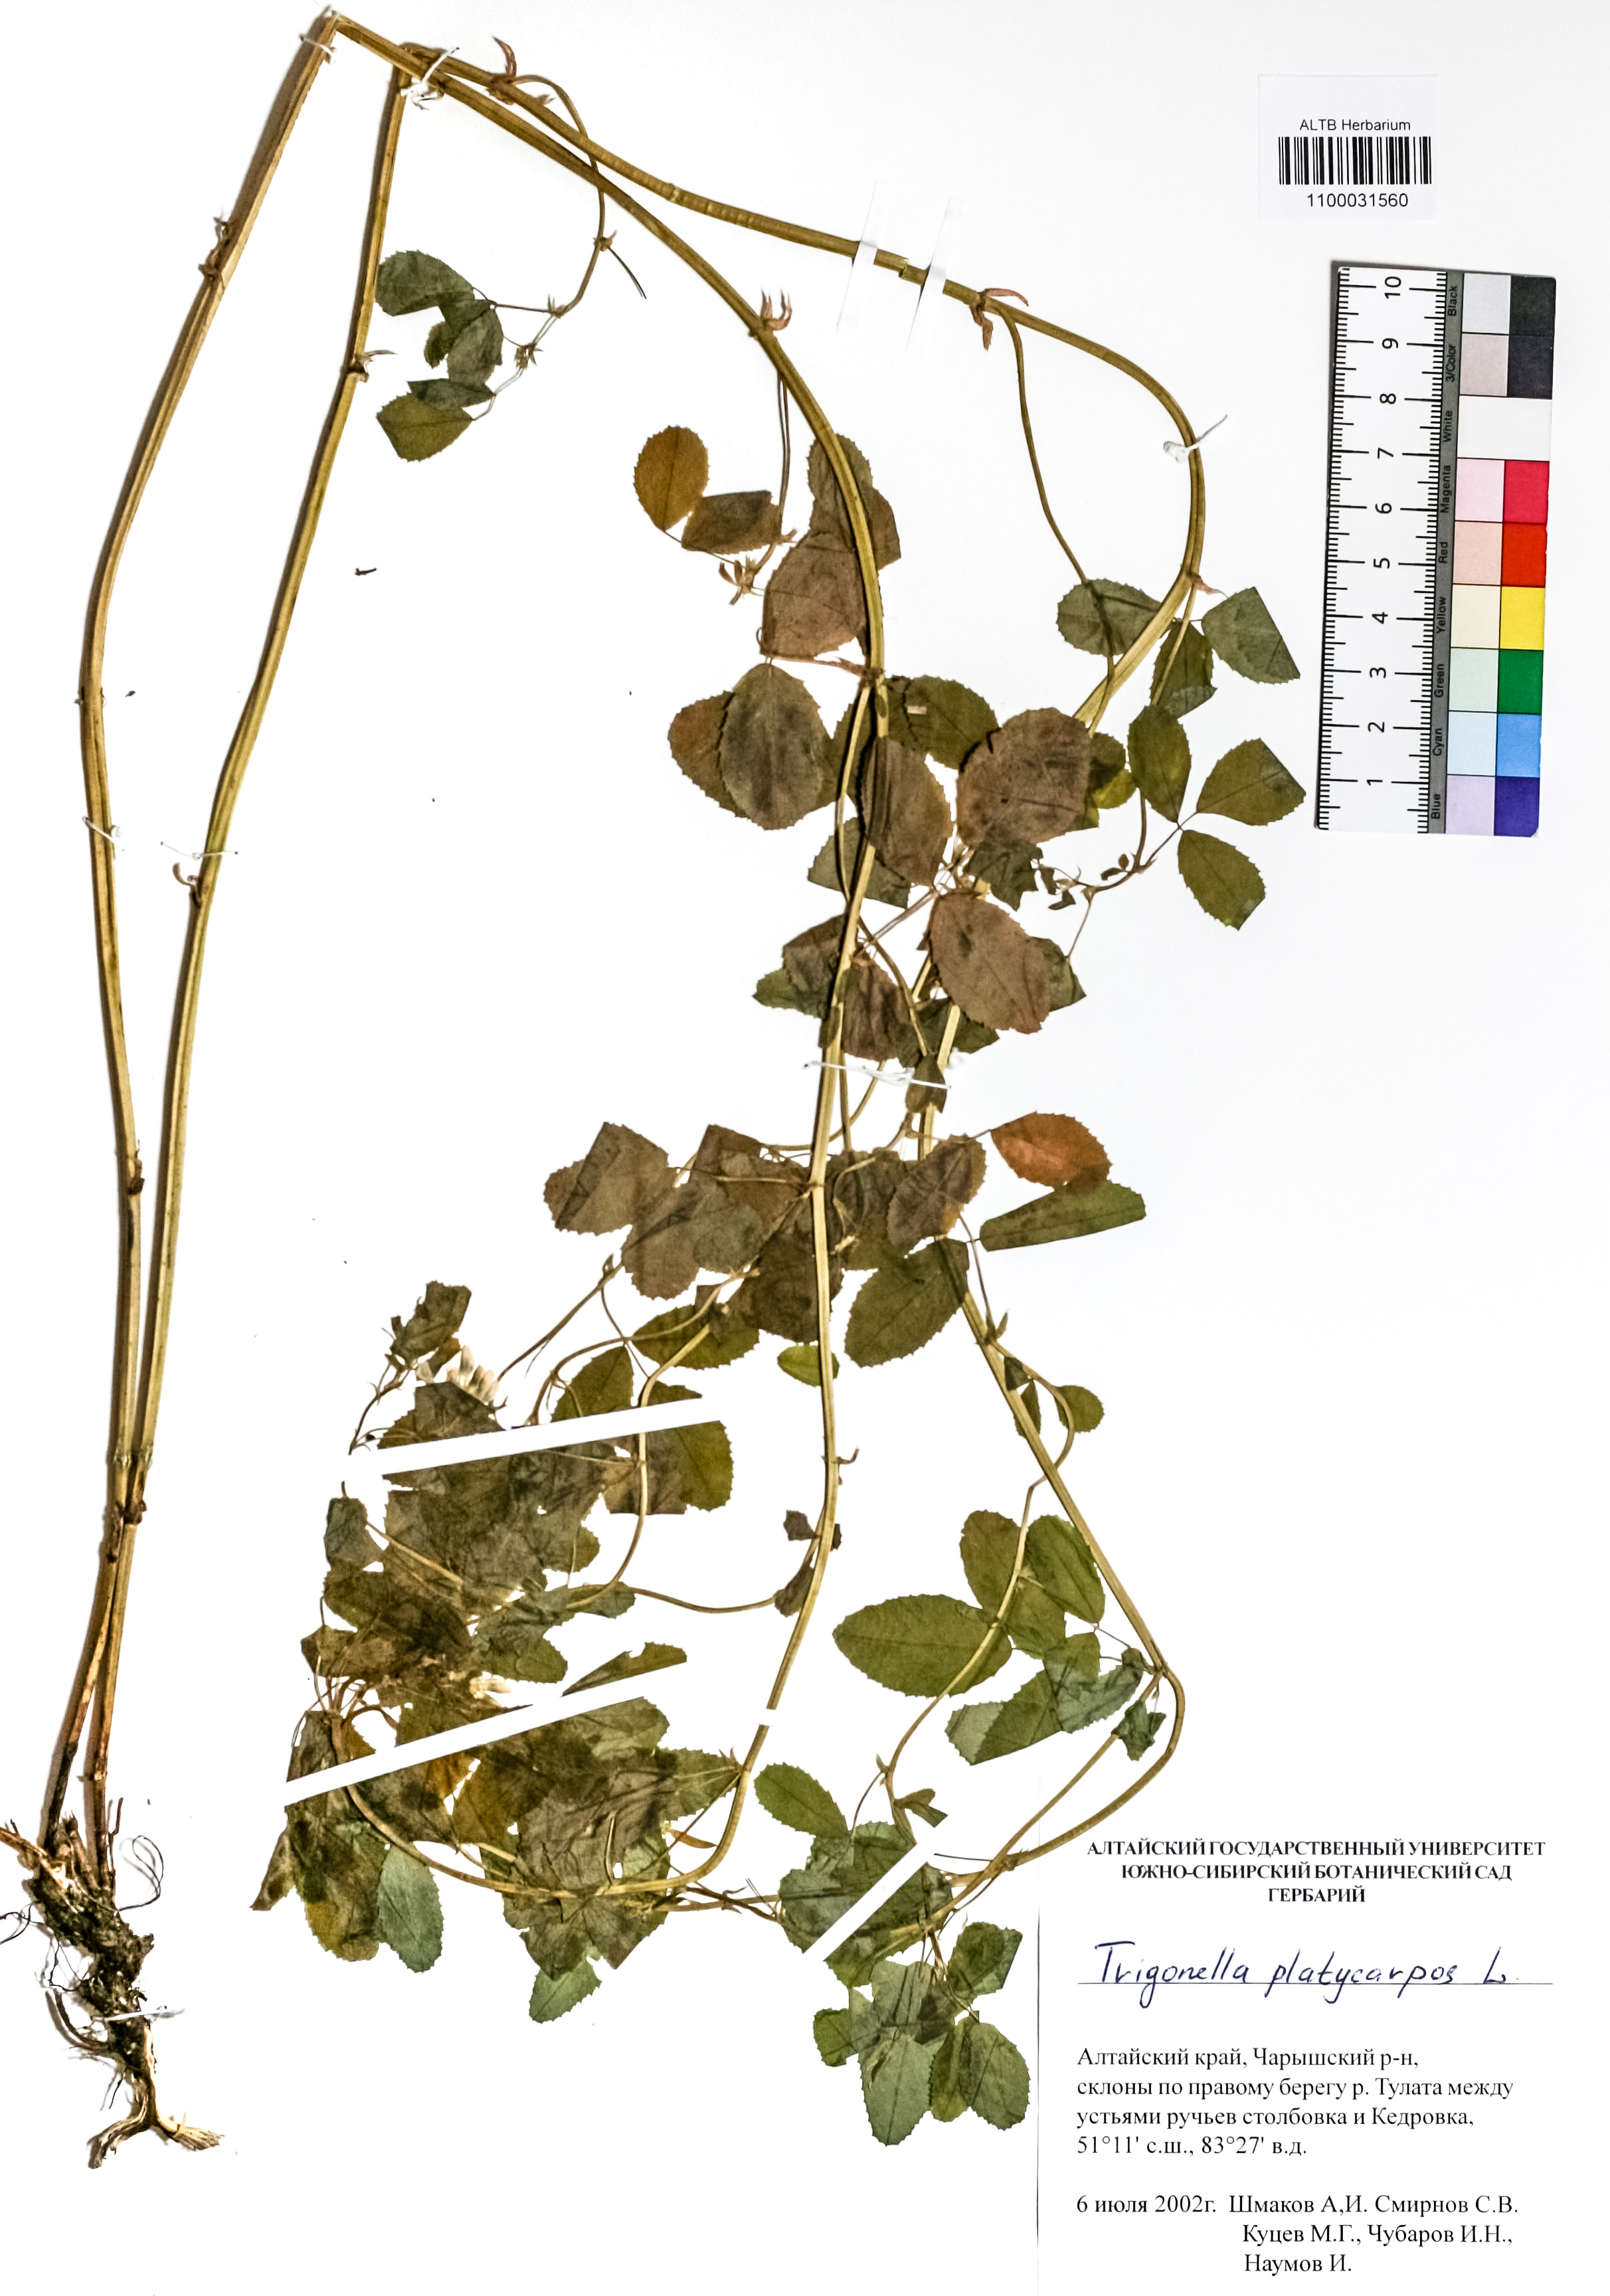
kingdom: Plantae
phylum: Tracheophyta
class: Magnoliopsida
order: Fabales
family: Fabaceae
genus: Medicago
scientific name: Medicago platycarpos
